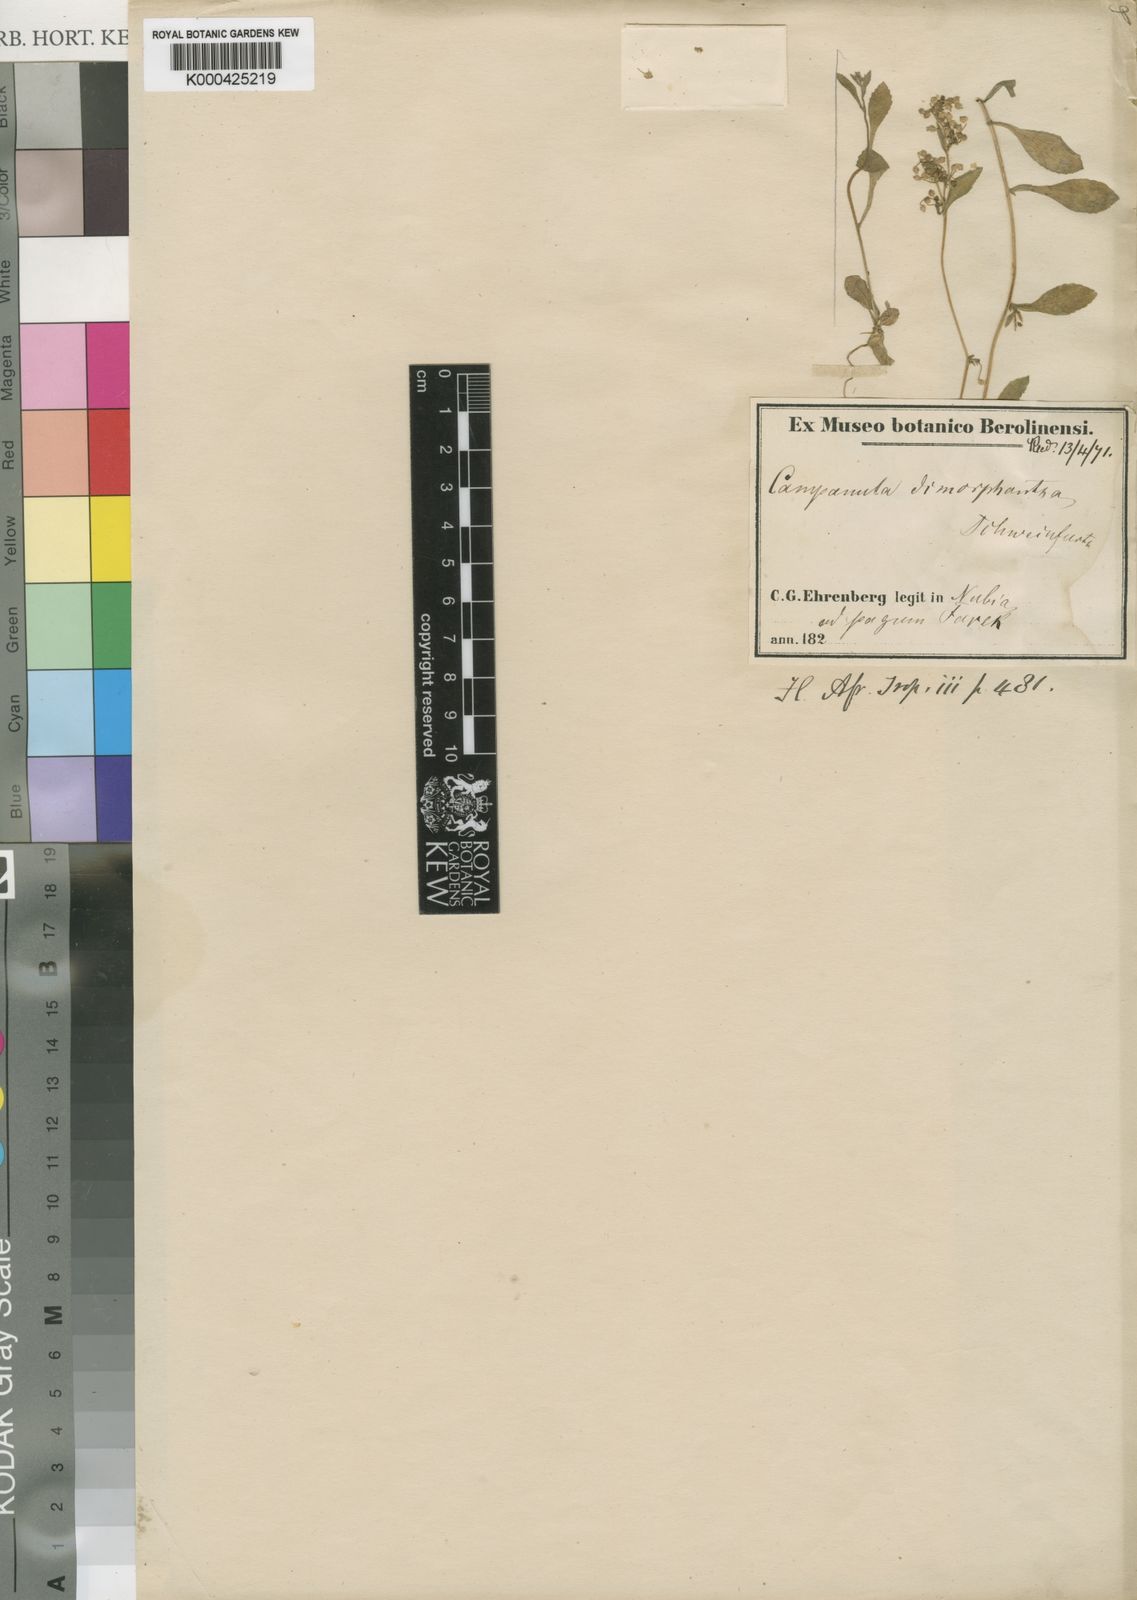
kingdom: Plantae
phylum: Tracheophyta
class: Magnoliopsida
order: Asterales
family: Campanulaceae
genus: Campanula
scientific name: Campanula dimorphantha
